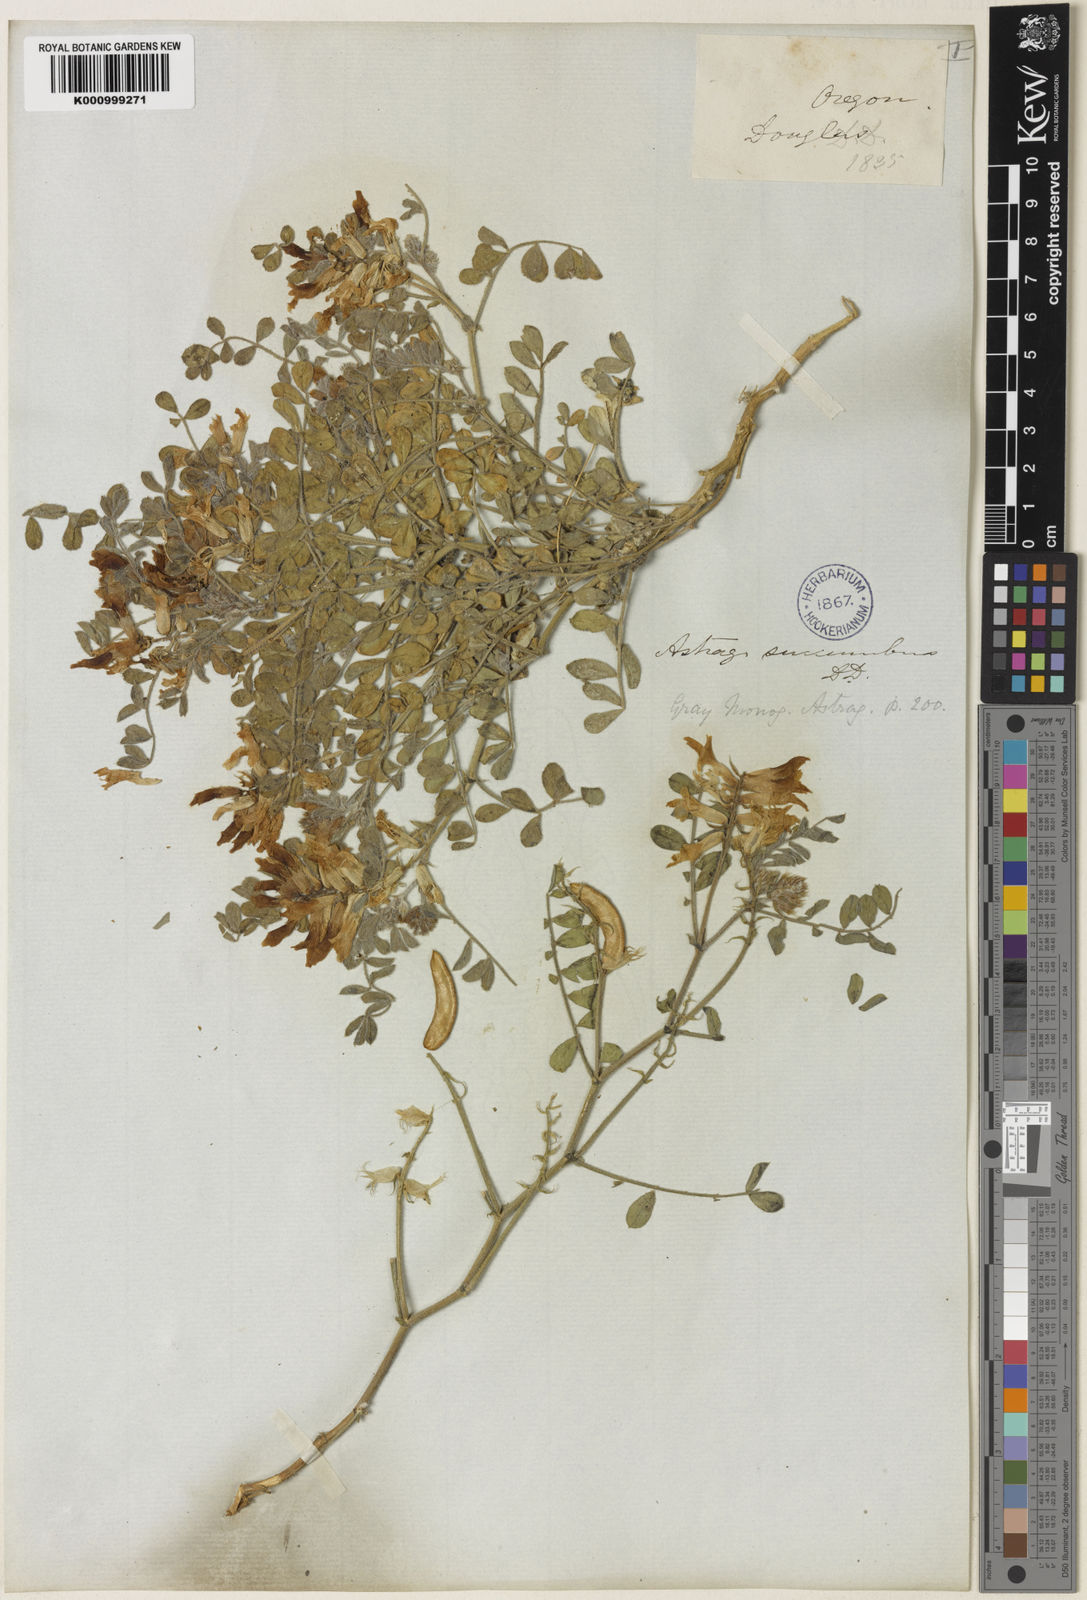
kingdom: Plantae
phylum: Tracheophyta
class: Magnoliopsida
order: Fabales
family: Fabaceae
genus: Astragalus
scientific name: Astragalus
